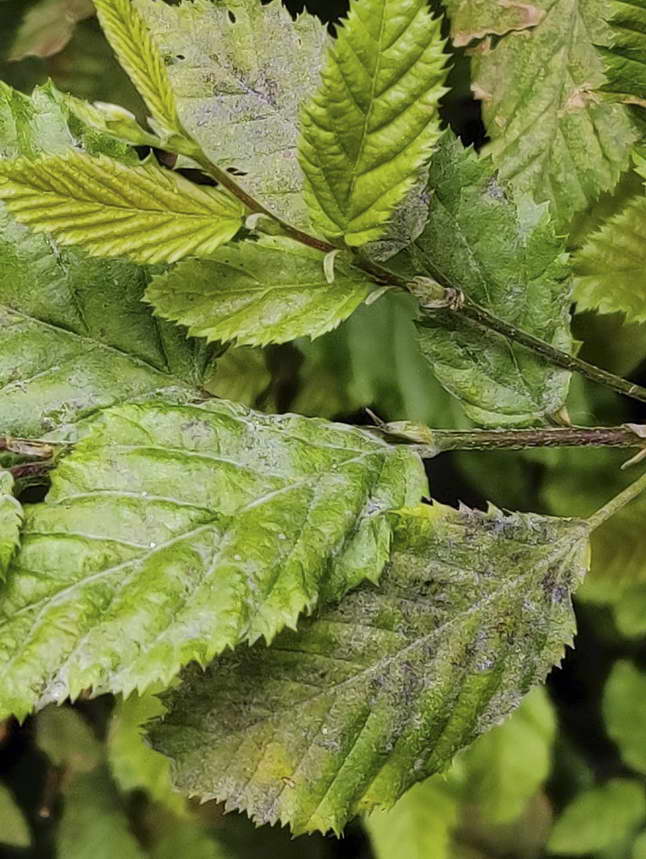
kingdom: Fungi
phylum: Ascomycota
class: Leotiomycetes
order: Helotiales
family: Erysiphaceae
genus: Erysiphe
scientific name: Erysiphe arcuata
